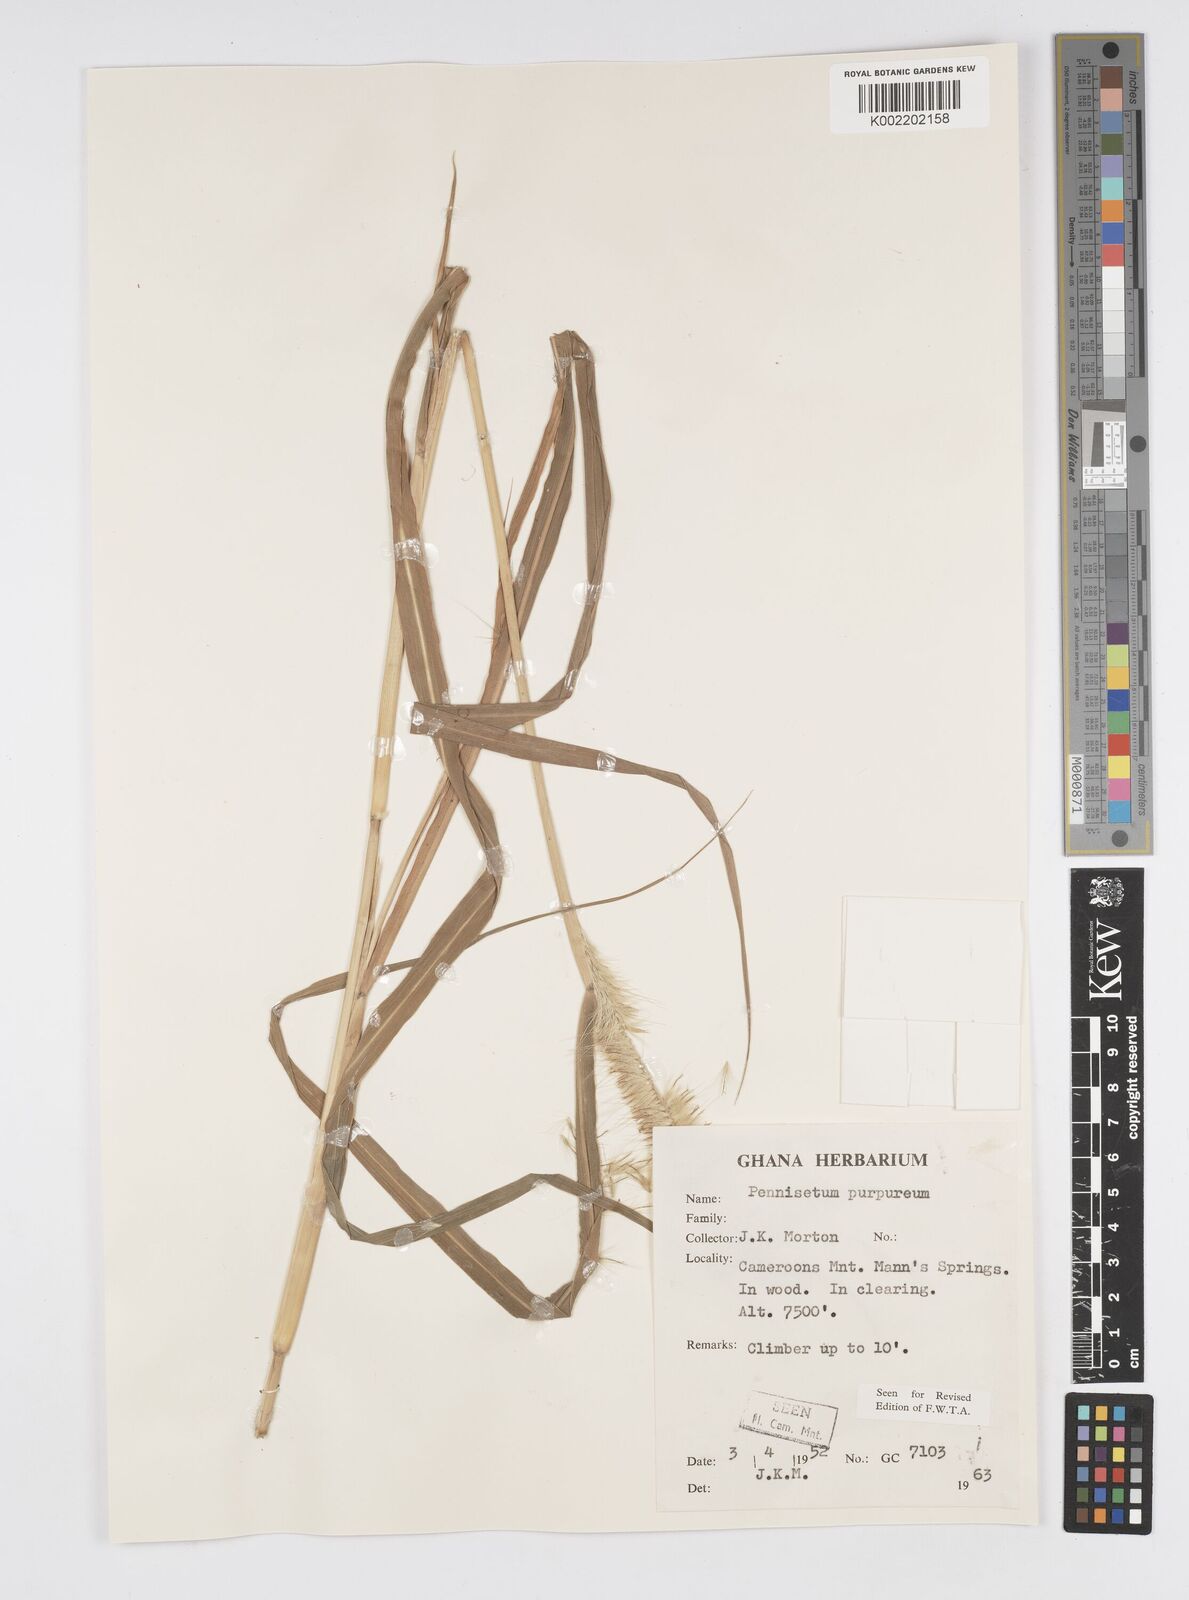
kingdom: Plantae
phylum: Tracheophyta
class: Liliopsida
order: Poales
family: Poaceae
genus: Cenchrus
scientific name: Cenchrus purpureus
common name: Elephant grass
